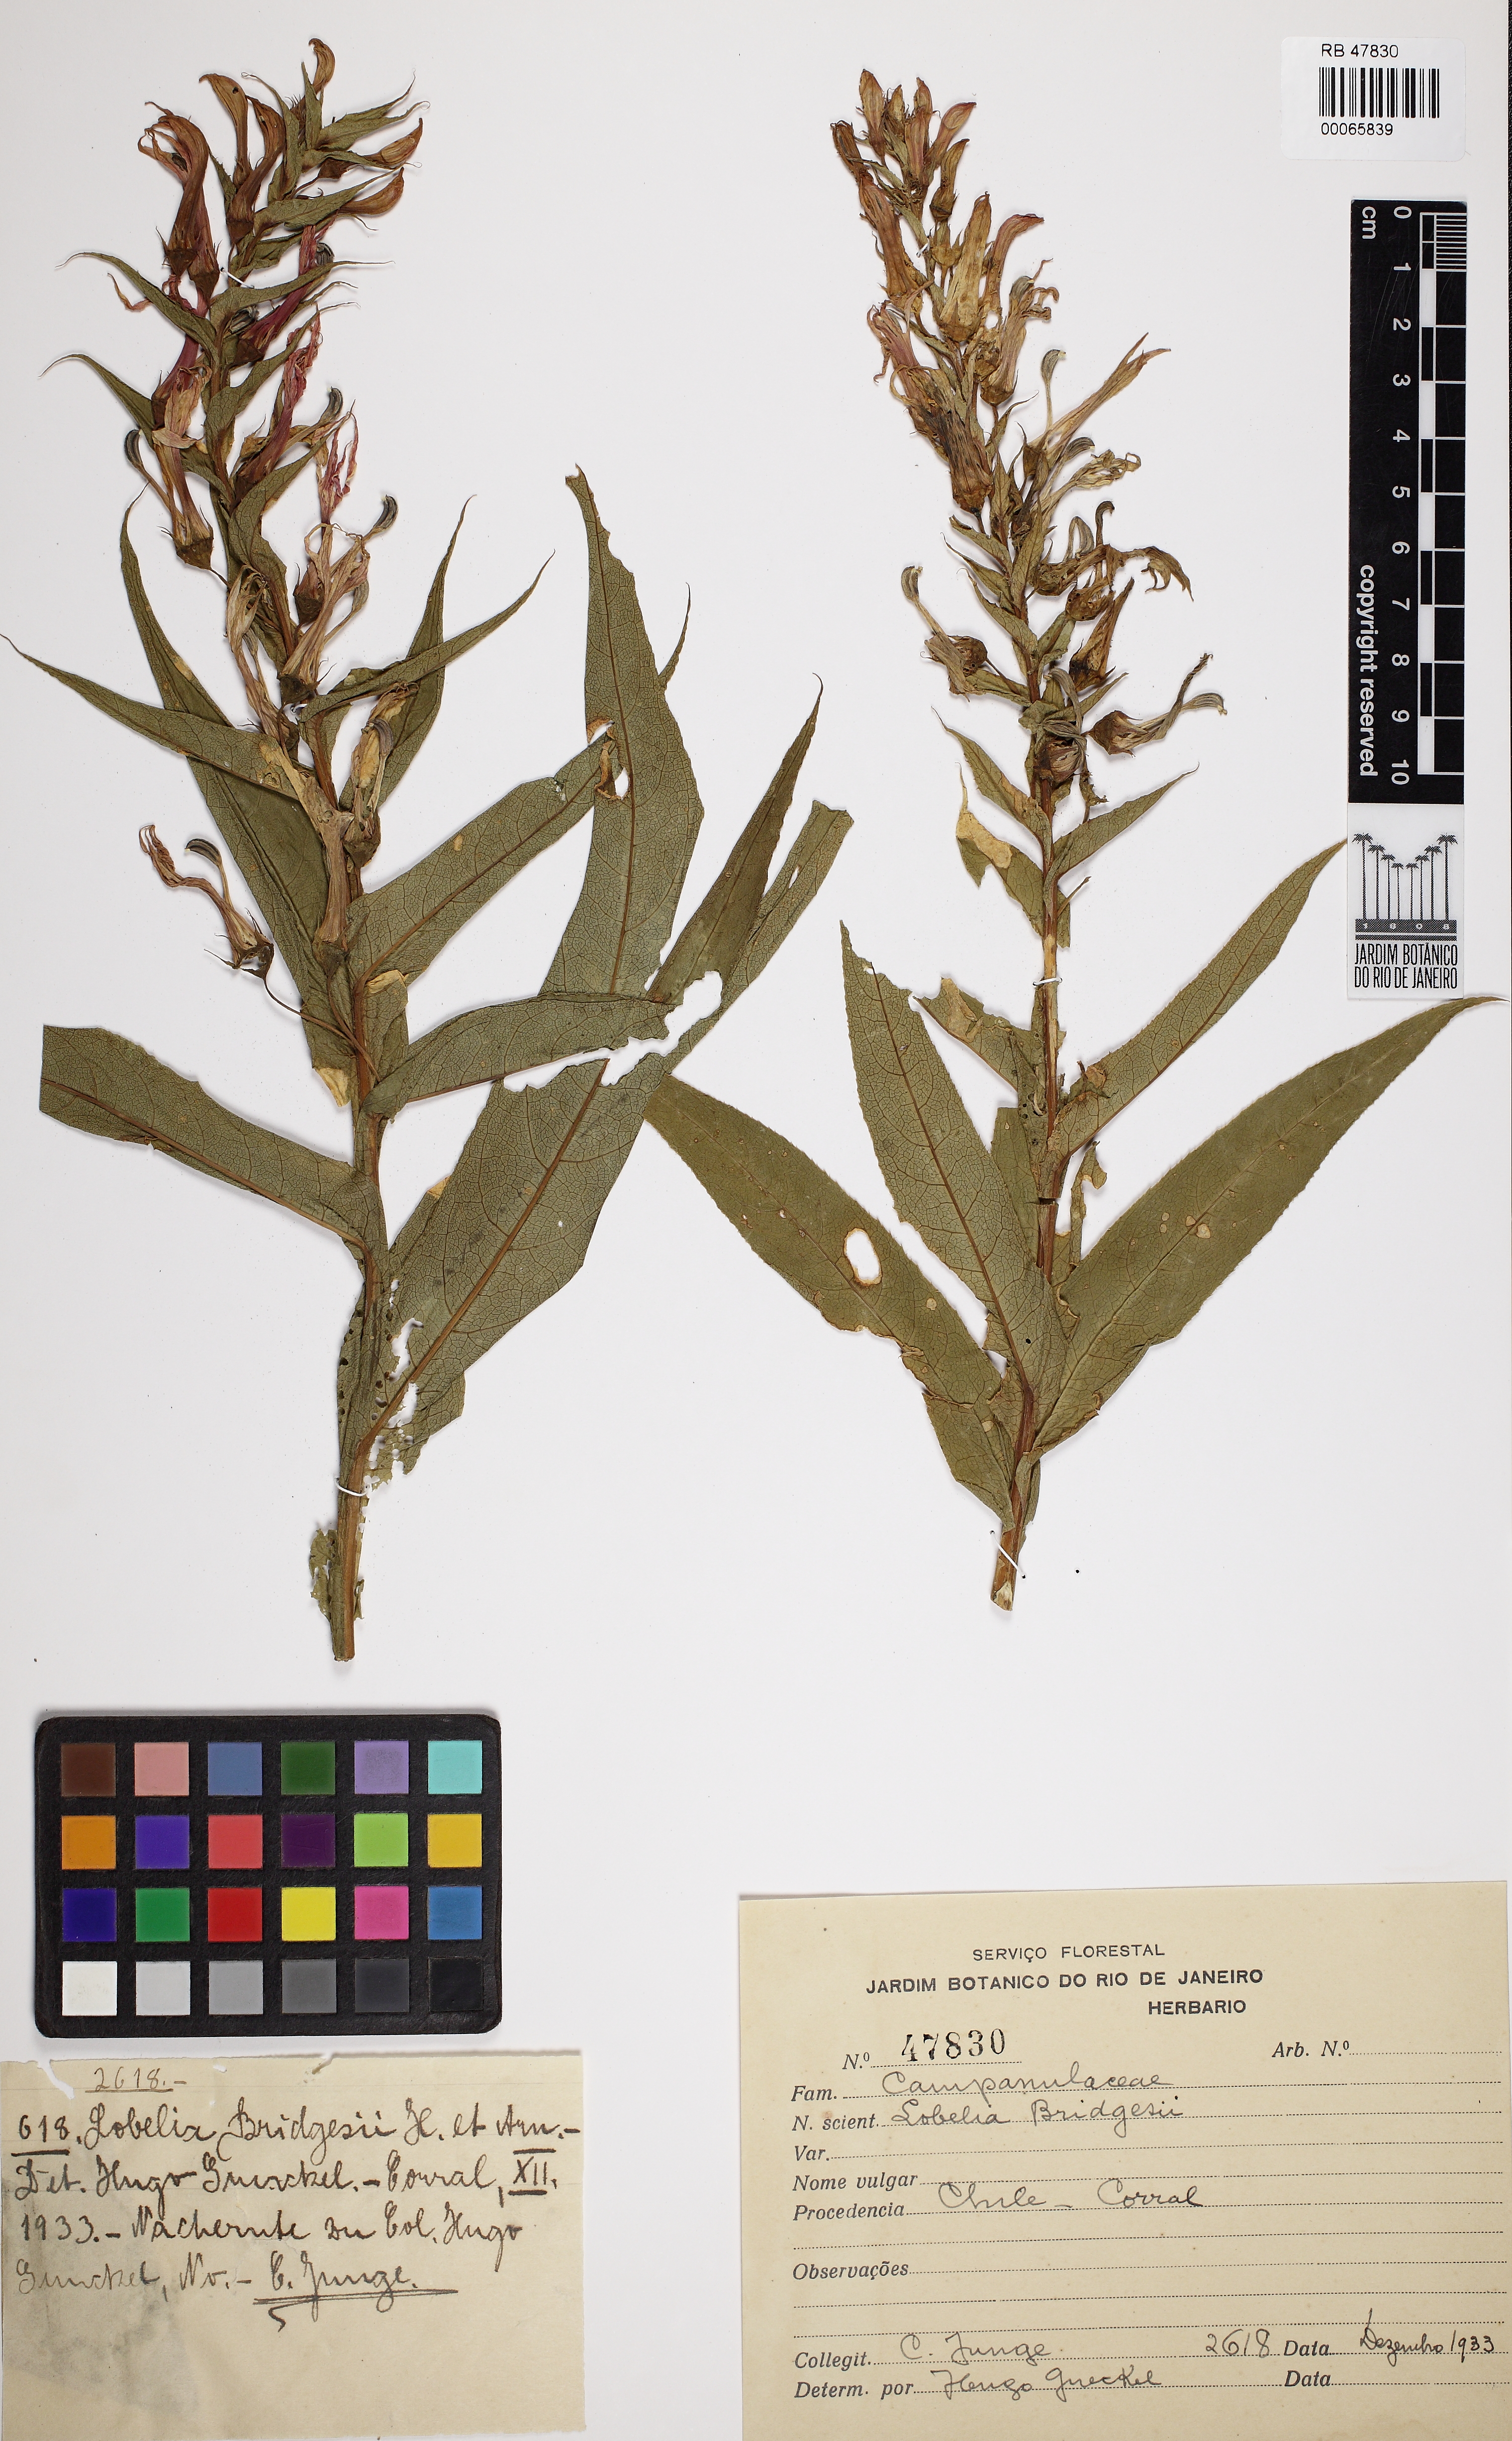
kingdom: Plantae
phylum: Tracheophyta
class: Magnoliopsida
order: Asterales
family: Campanulaceae
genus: Lobelia
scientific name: Lobelia bridgesii
